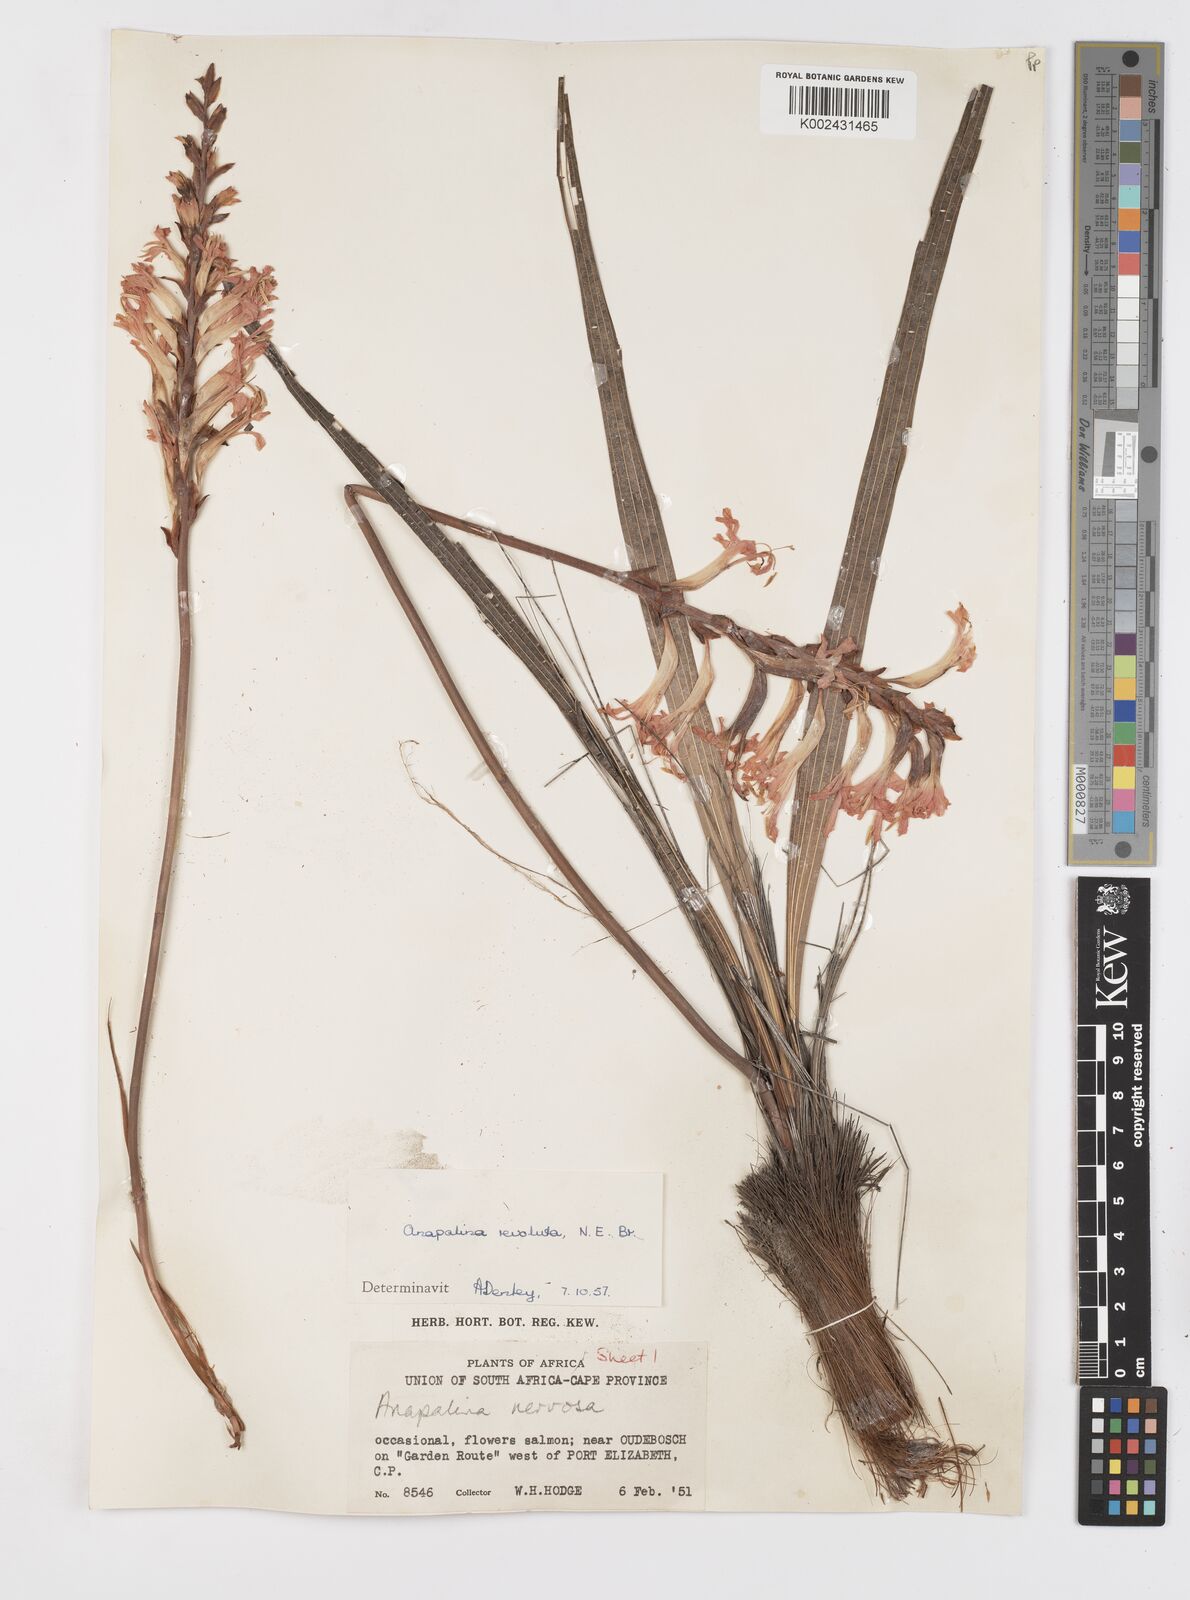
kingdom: Plantae
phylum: Tracheophyta
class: Liliopsida
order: Asparagales
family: Iridaceae
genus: Tritoniopsis
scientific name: Tritoniopsis nervosa
